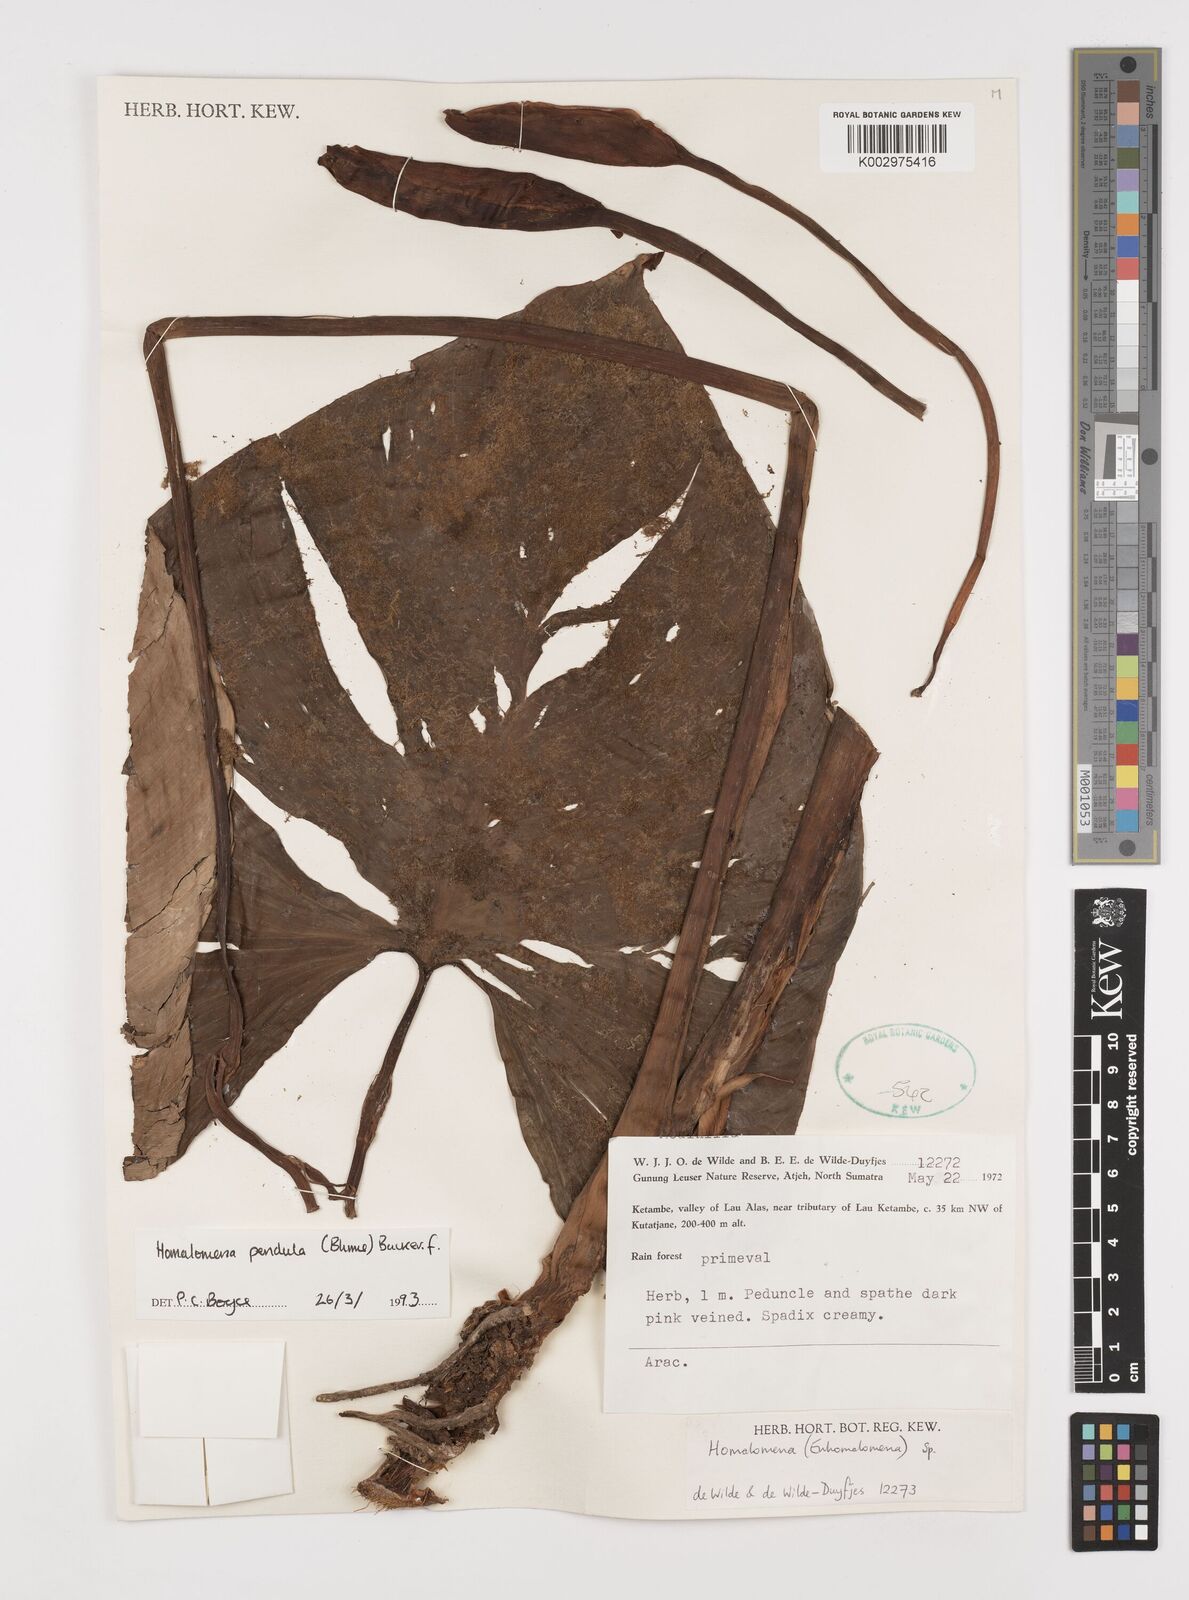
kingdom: Plantae
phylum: Tracheophyta
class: Liliopsida
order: Alismatales
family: Araceae
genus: Homalomena
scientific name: Homalomena pendula
